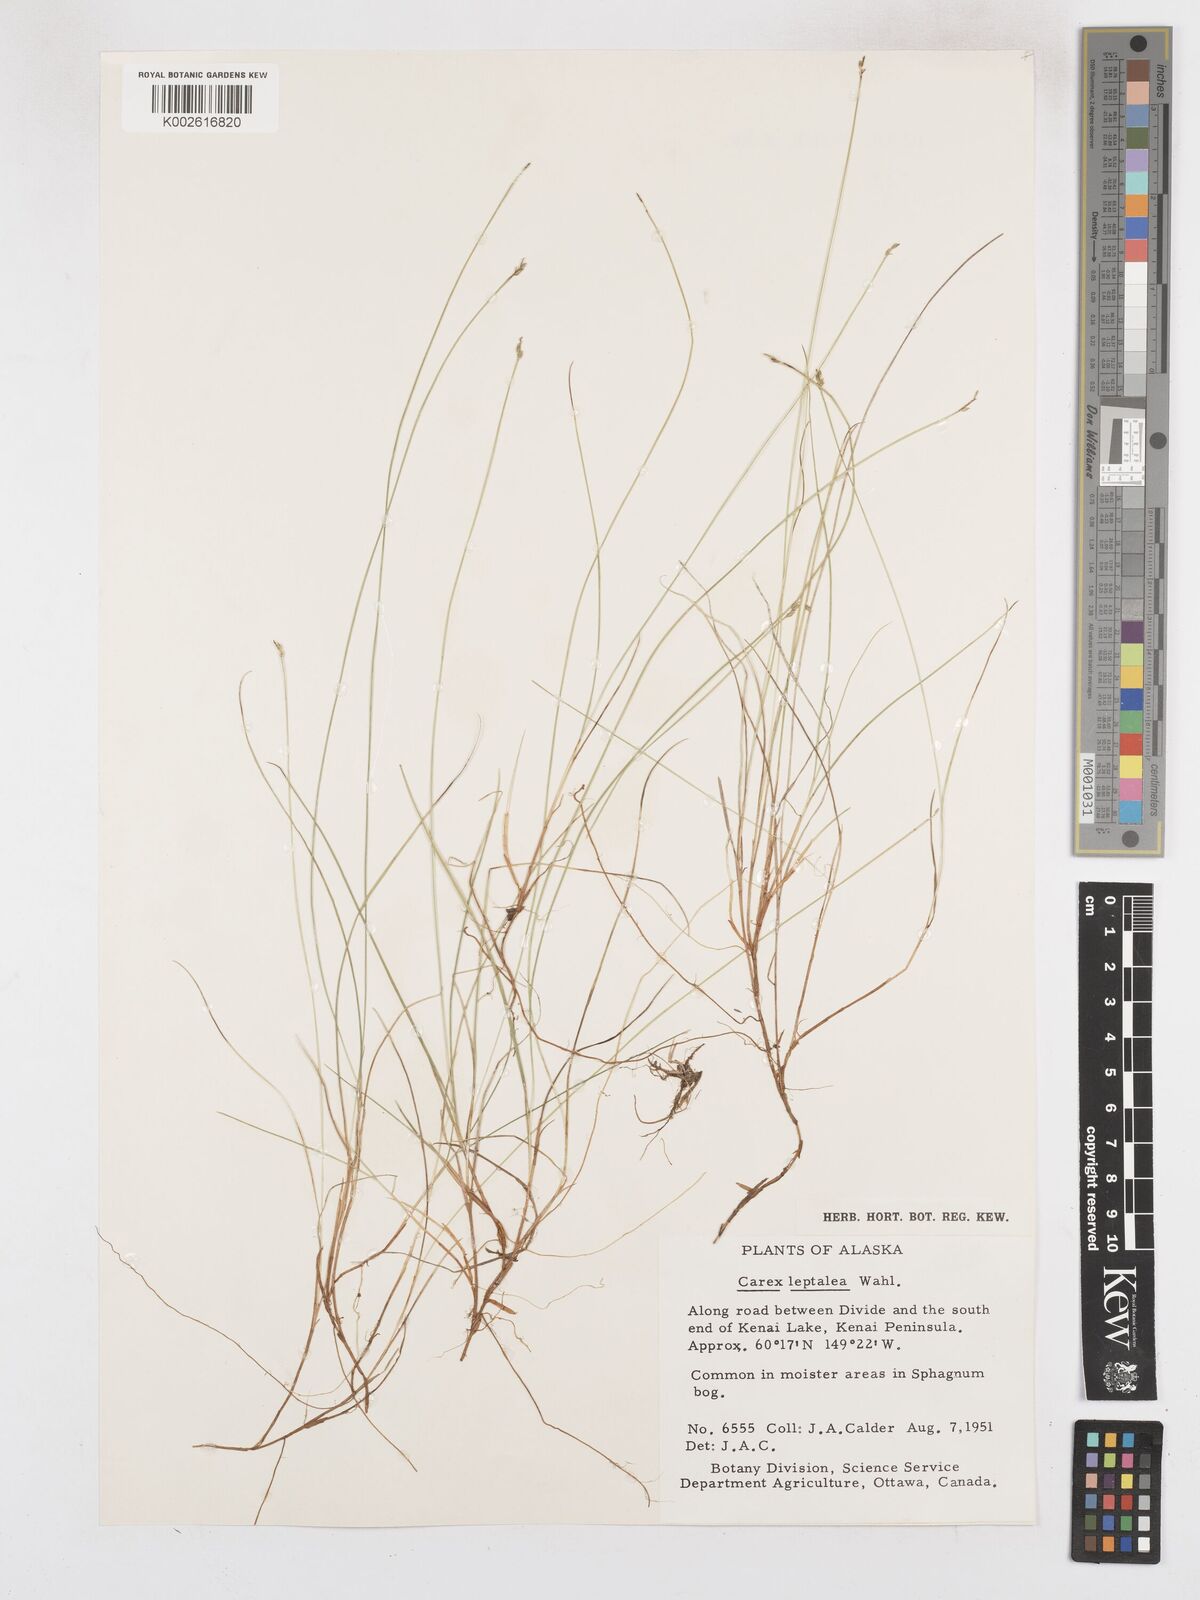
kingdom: Plantae
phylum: Tracheophyta
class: Liliopsida
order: Poales
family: Cyperaceae
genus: Carex
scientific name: Carex leptalea
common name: Bristly-stalked sedge
